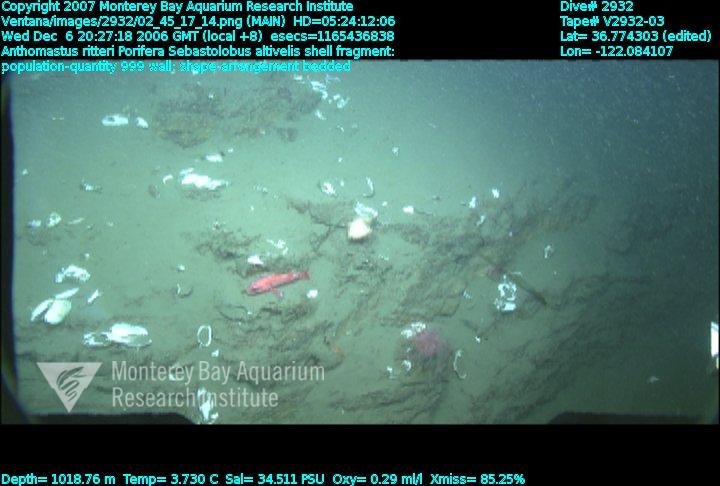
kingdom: Animalia
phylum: Porifera
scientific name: Porifera
